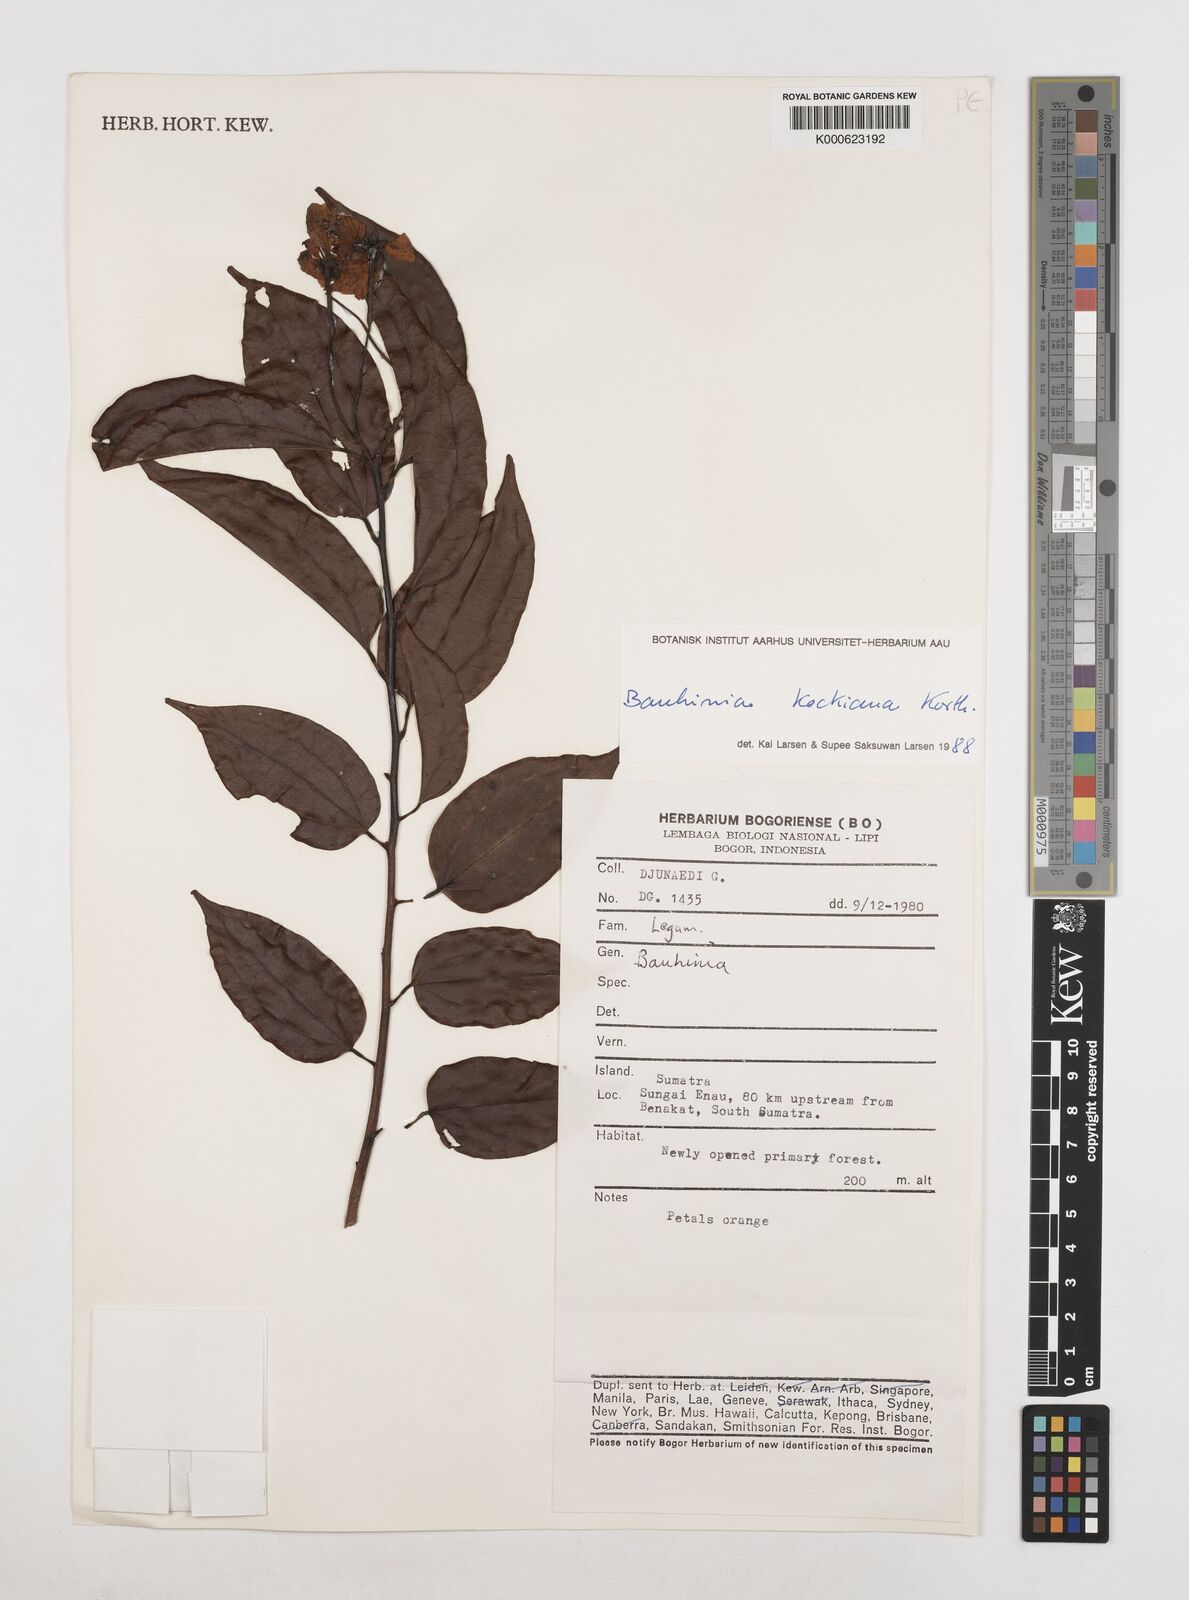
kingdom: Plantae
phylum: Tracheophyta
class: Magnoliopsida
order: Fabales
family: Fabaceae
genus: Phanera
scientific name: Phanera kockiana
